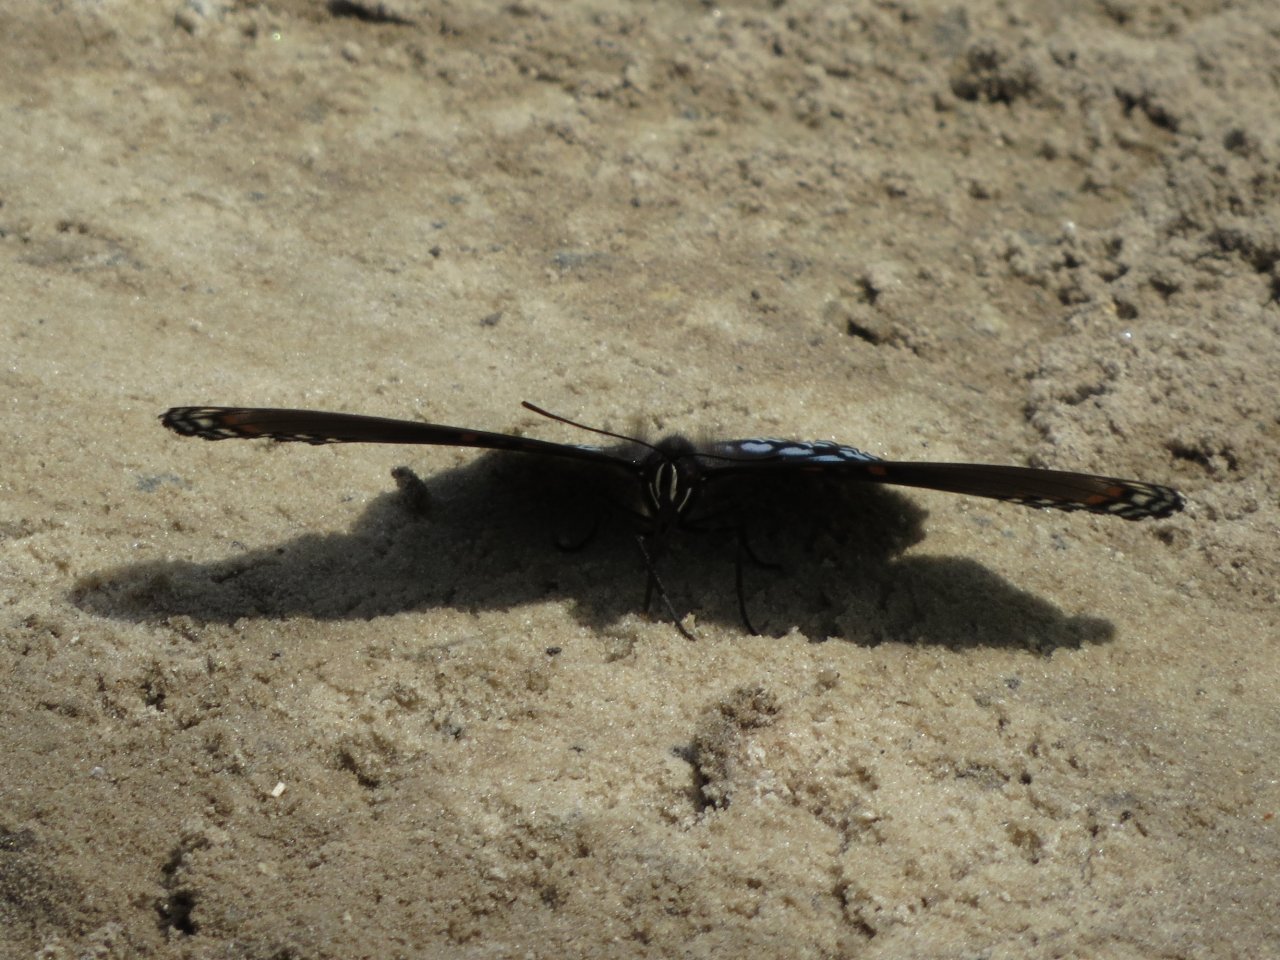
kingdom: Animalia
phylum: Arthropoda
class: Insecta
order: Lepidoptera
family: Nymphalidae
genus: Limenitis
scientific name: Limenitis astyanax
